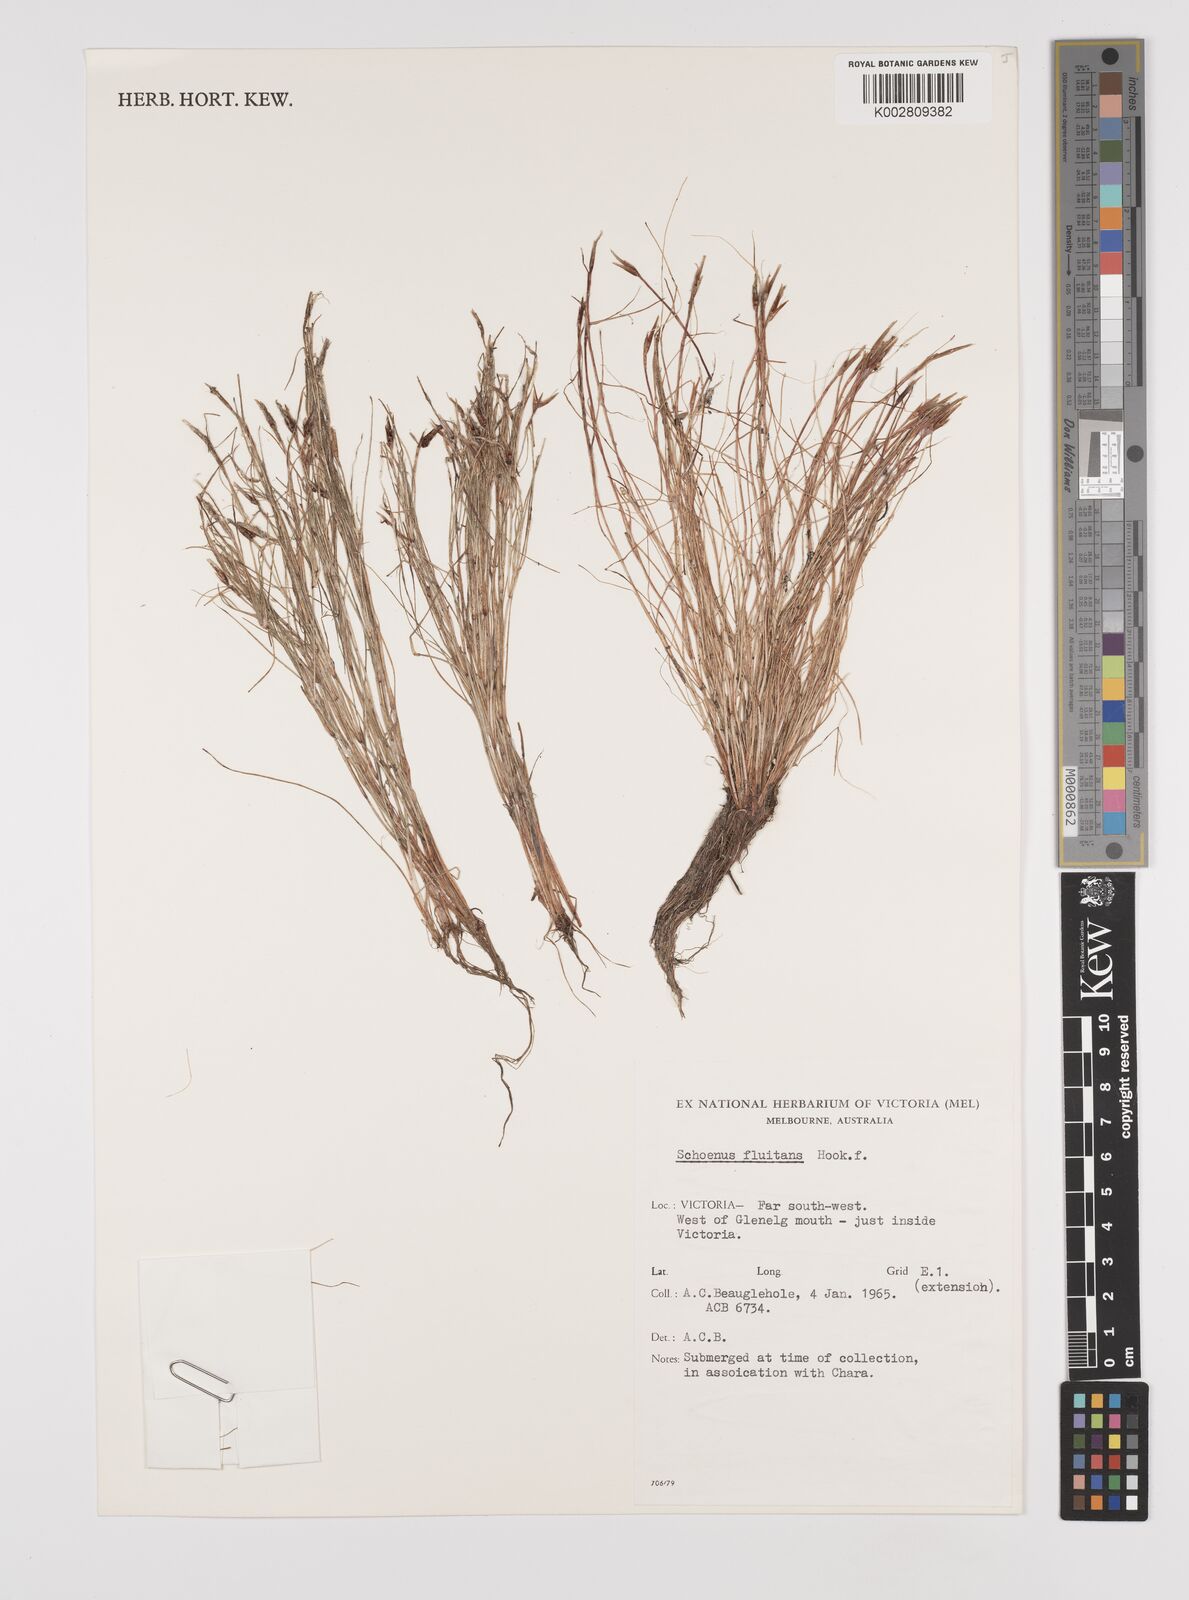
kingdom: Plantae
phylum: Tracheophyta
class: Liliopsida
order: Poales
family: Cyperaceae
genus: Schoenus
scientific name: Schoenus fluitans
